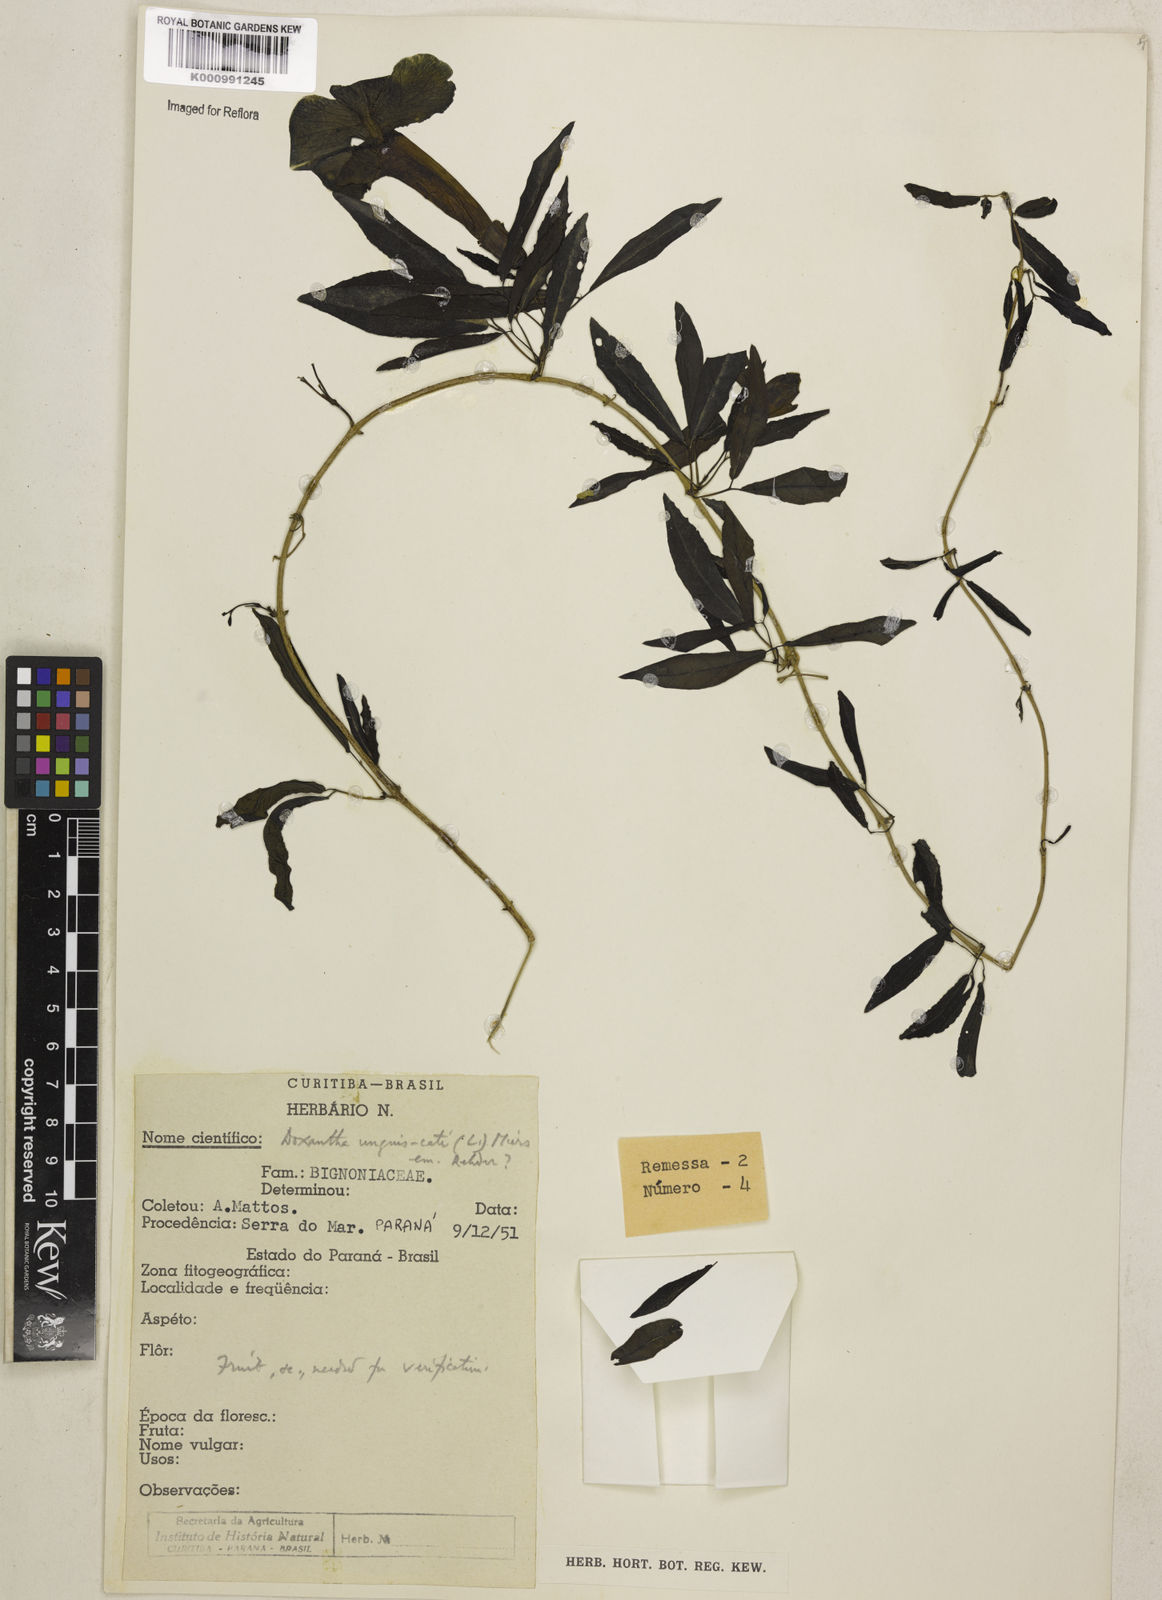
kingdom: Plantae
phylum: Tracheophyta
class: Magnoliopsida
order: Lamiales
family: Bignoniaceae
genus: Dolichandra
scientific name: Dolichandra unguis-cati
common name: Catclaw vine
